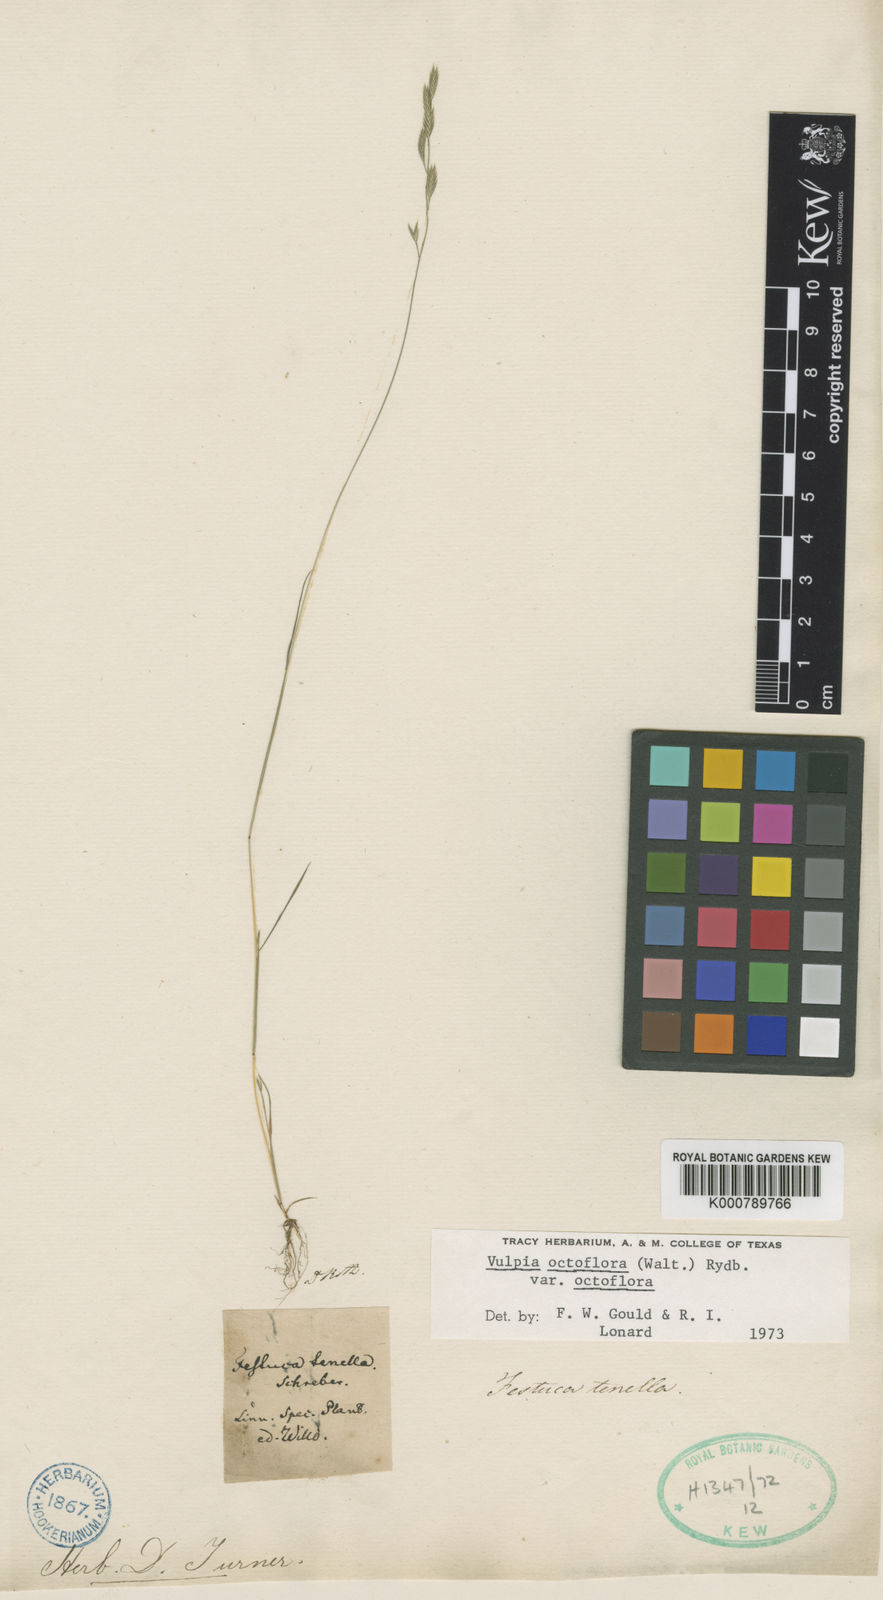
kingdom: Plantae
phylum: Tracheophyta
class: Liliopsida
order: Poales
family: Poaceae
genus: Festuca
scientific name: Festuca octoflora
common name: Sixweeks grass
